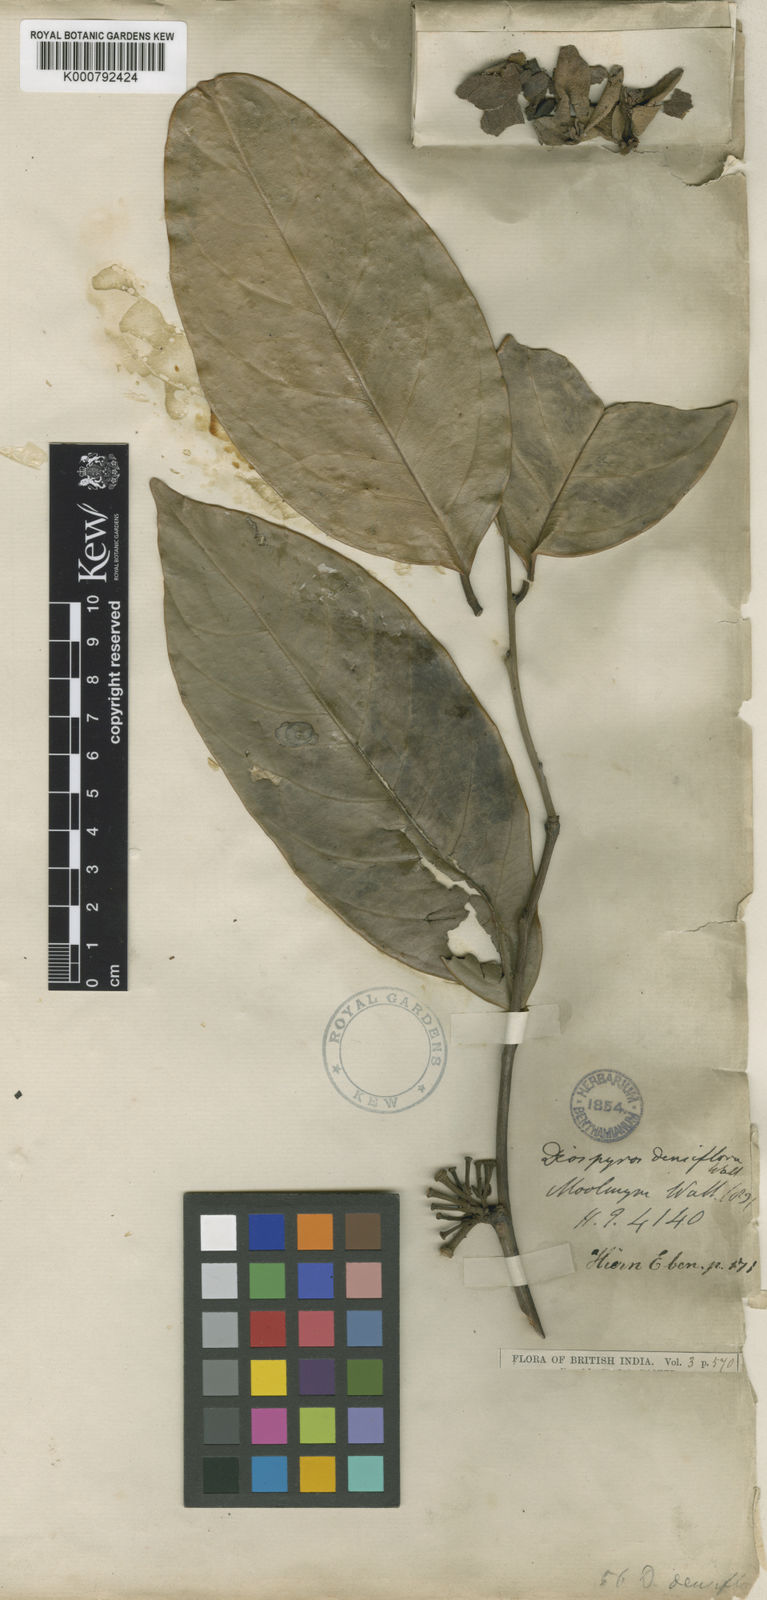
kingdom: Plantae
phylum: Tracheophyta
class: Magnoliopsida
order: Ericales
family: Ebenaceae
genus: Diospyros
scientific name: Diospyros
